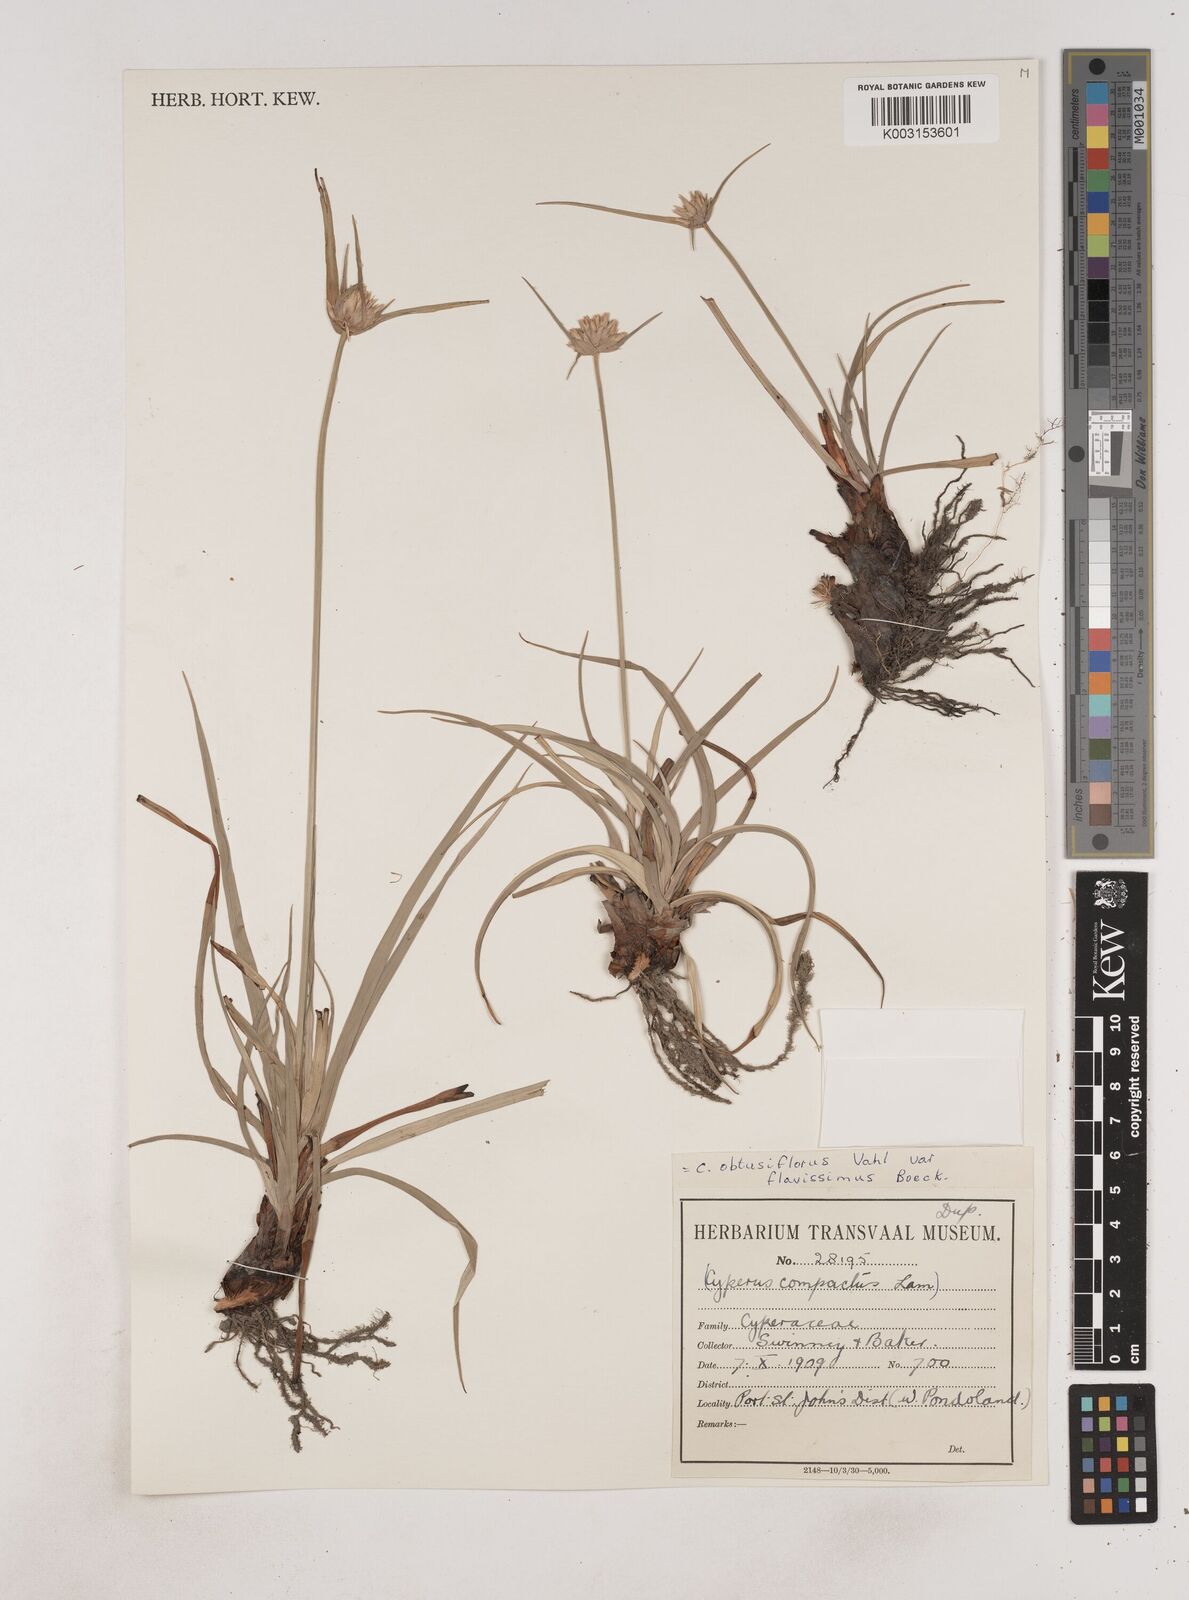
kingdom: Plantae
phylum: Tracheophyta
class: Liliopsida
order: Poales
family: Cyperaceae
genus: Cyperus
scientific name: Cyperus niveus
